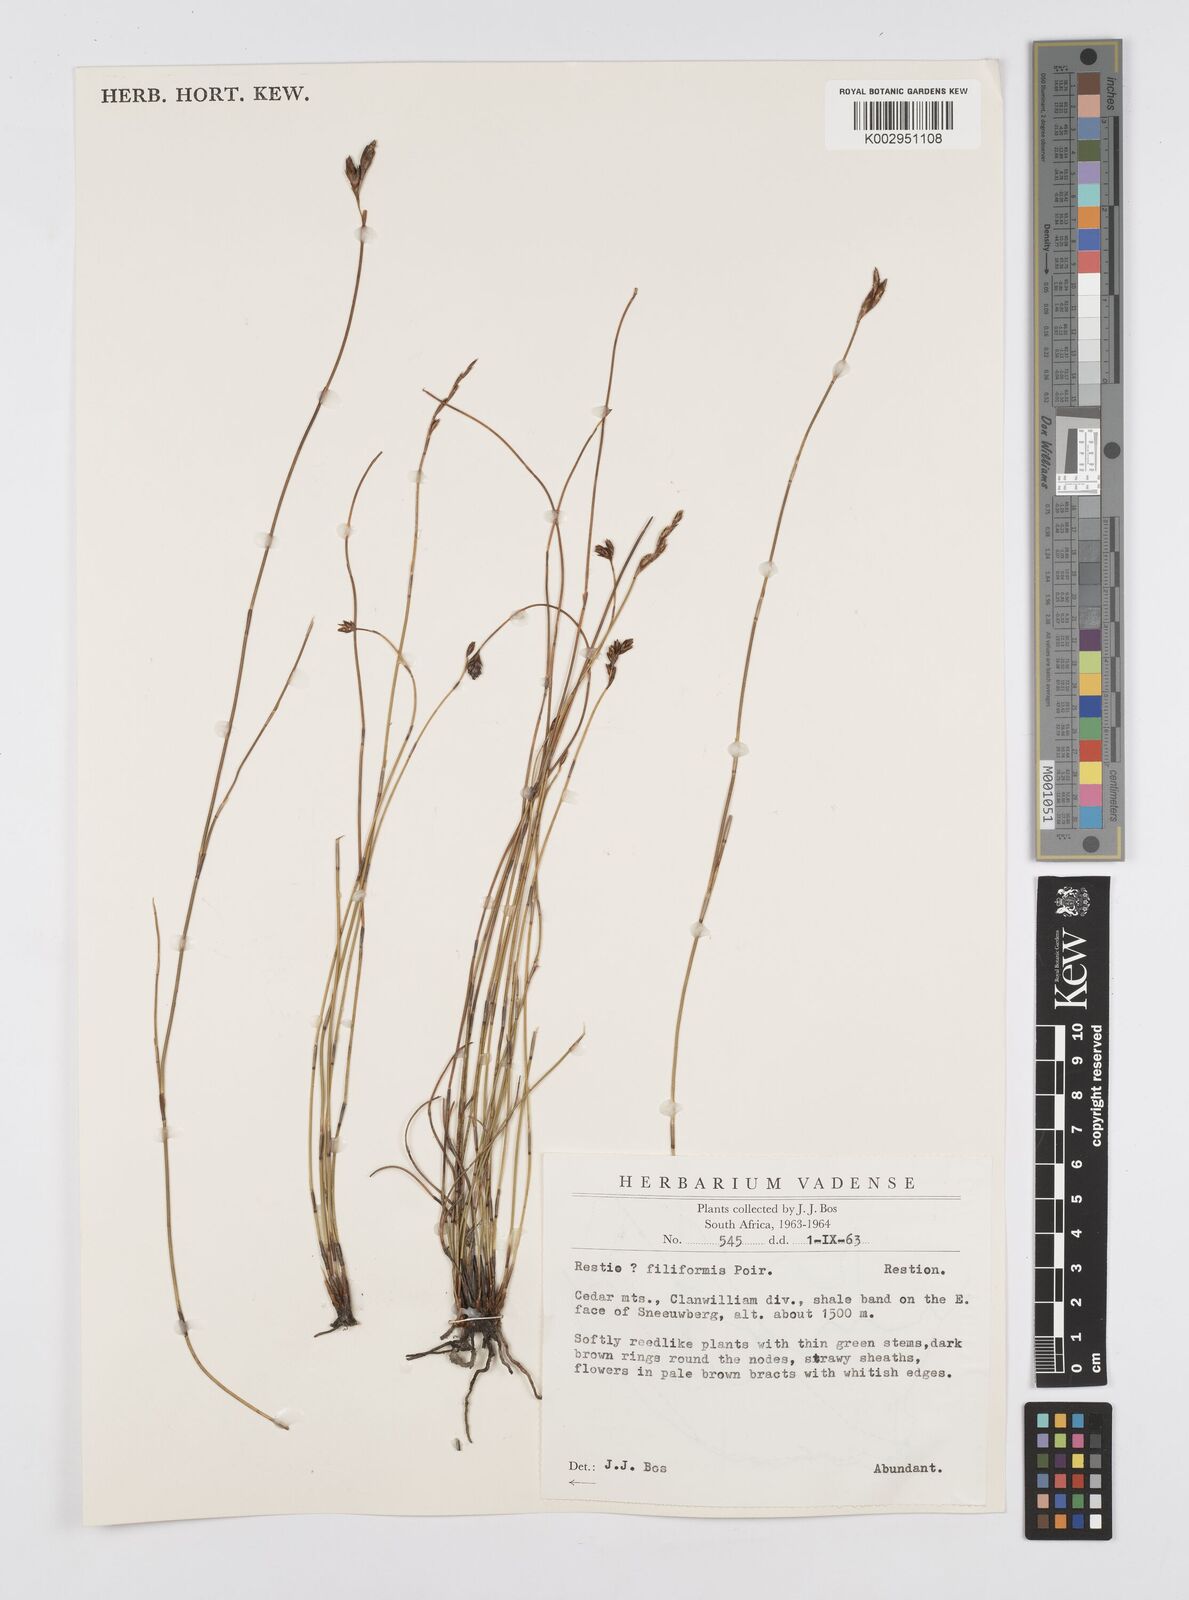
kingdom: Plantae
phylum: Tracheophyta
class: Liliopsida
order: Poales
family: Restionaceae
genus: Restio
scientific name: Restio filiformis
